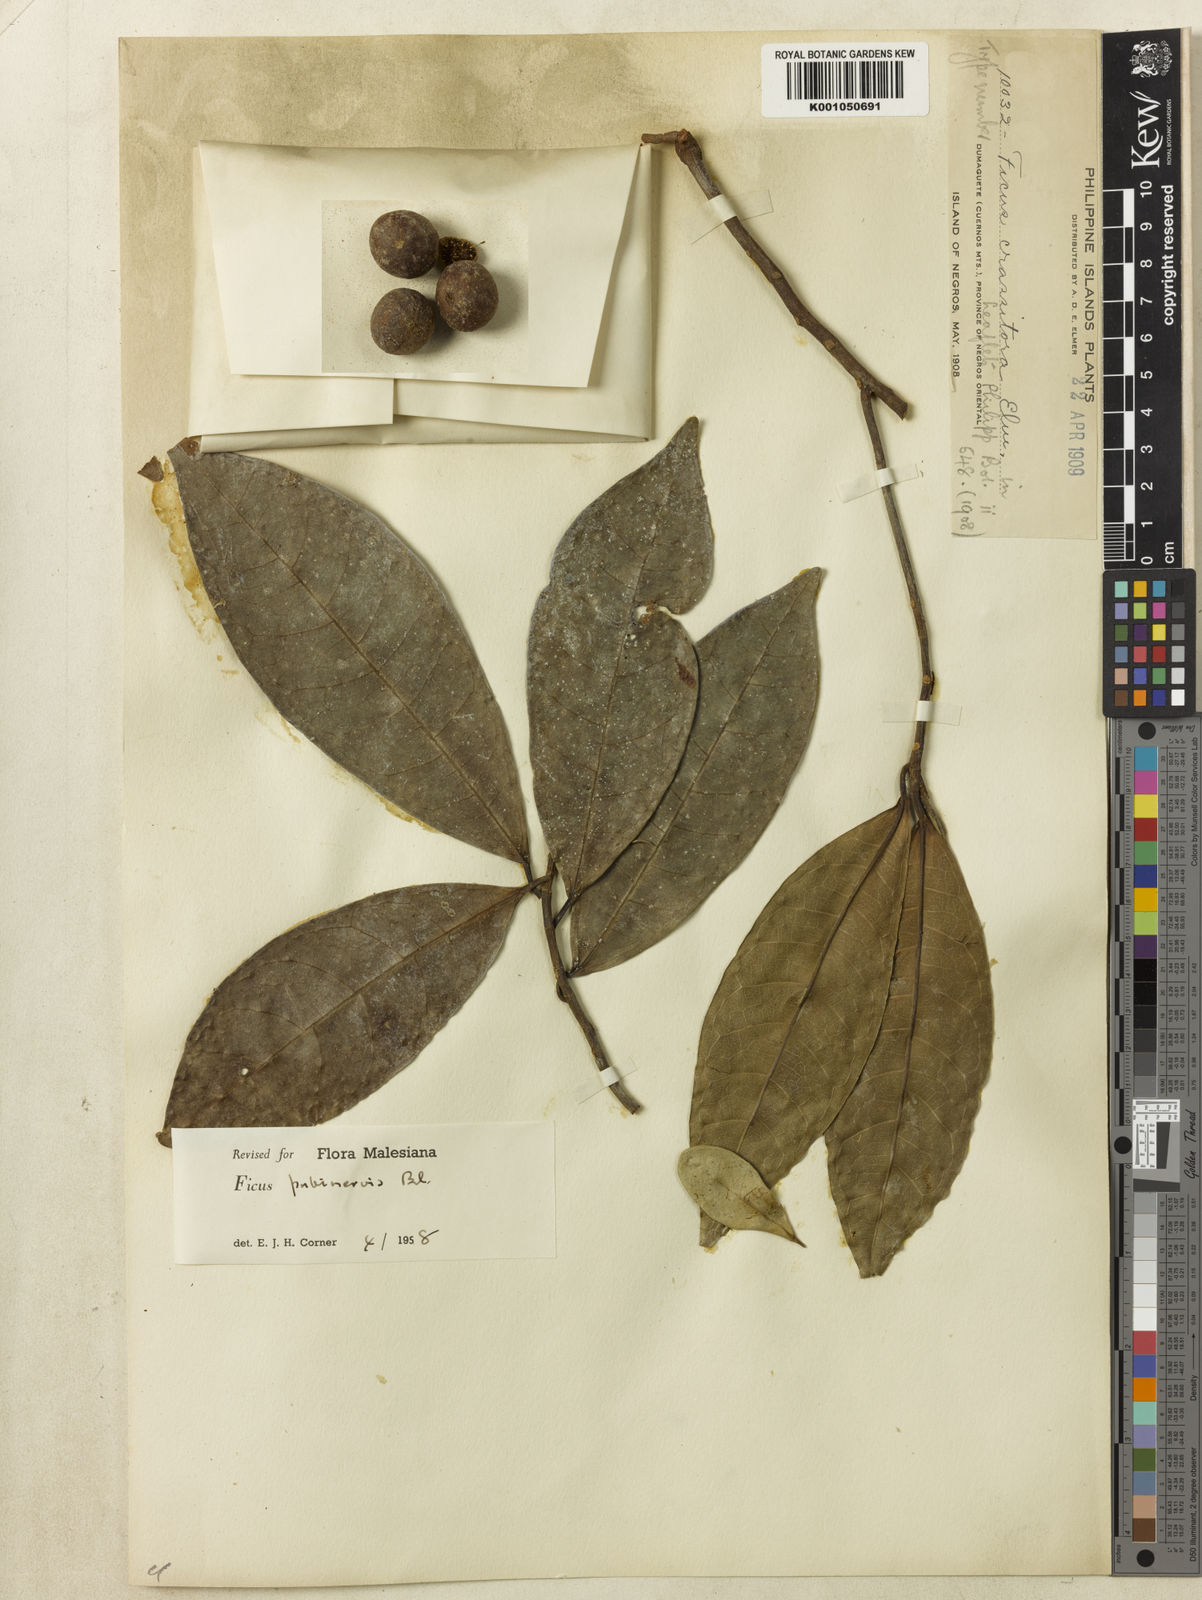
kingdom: Plantae
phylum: Tracheophyta
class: Magnoliopsida
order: Rosales
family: Moraceae
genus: Ficus
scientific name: Ficus nervosa
